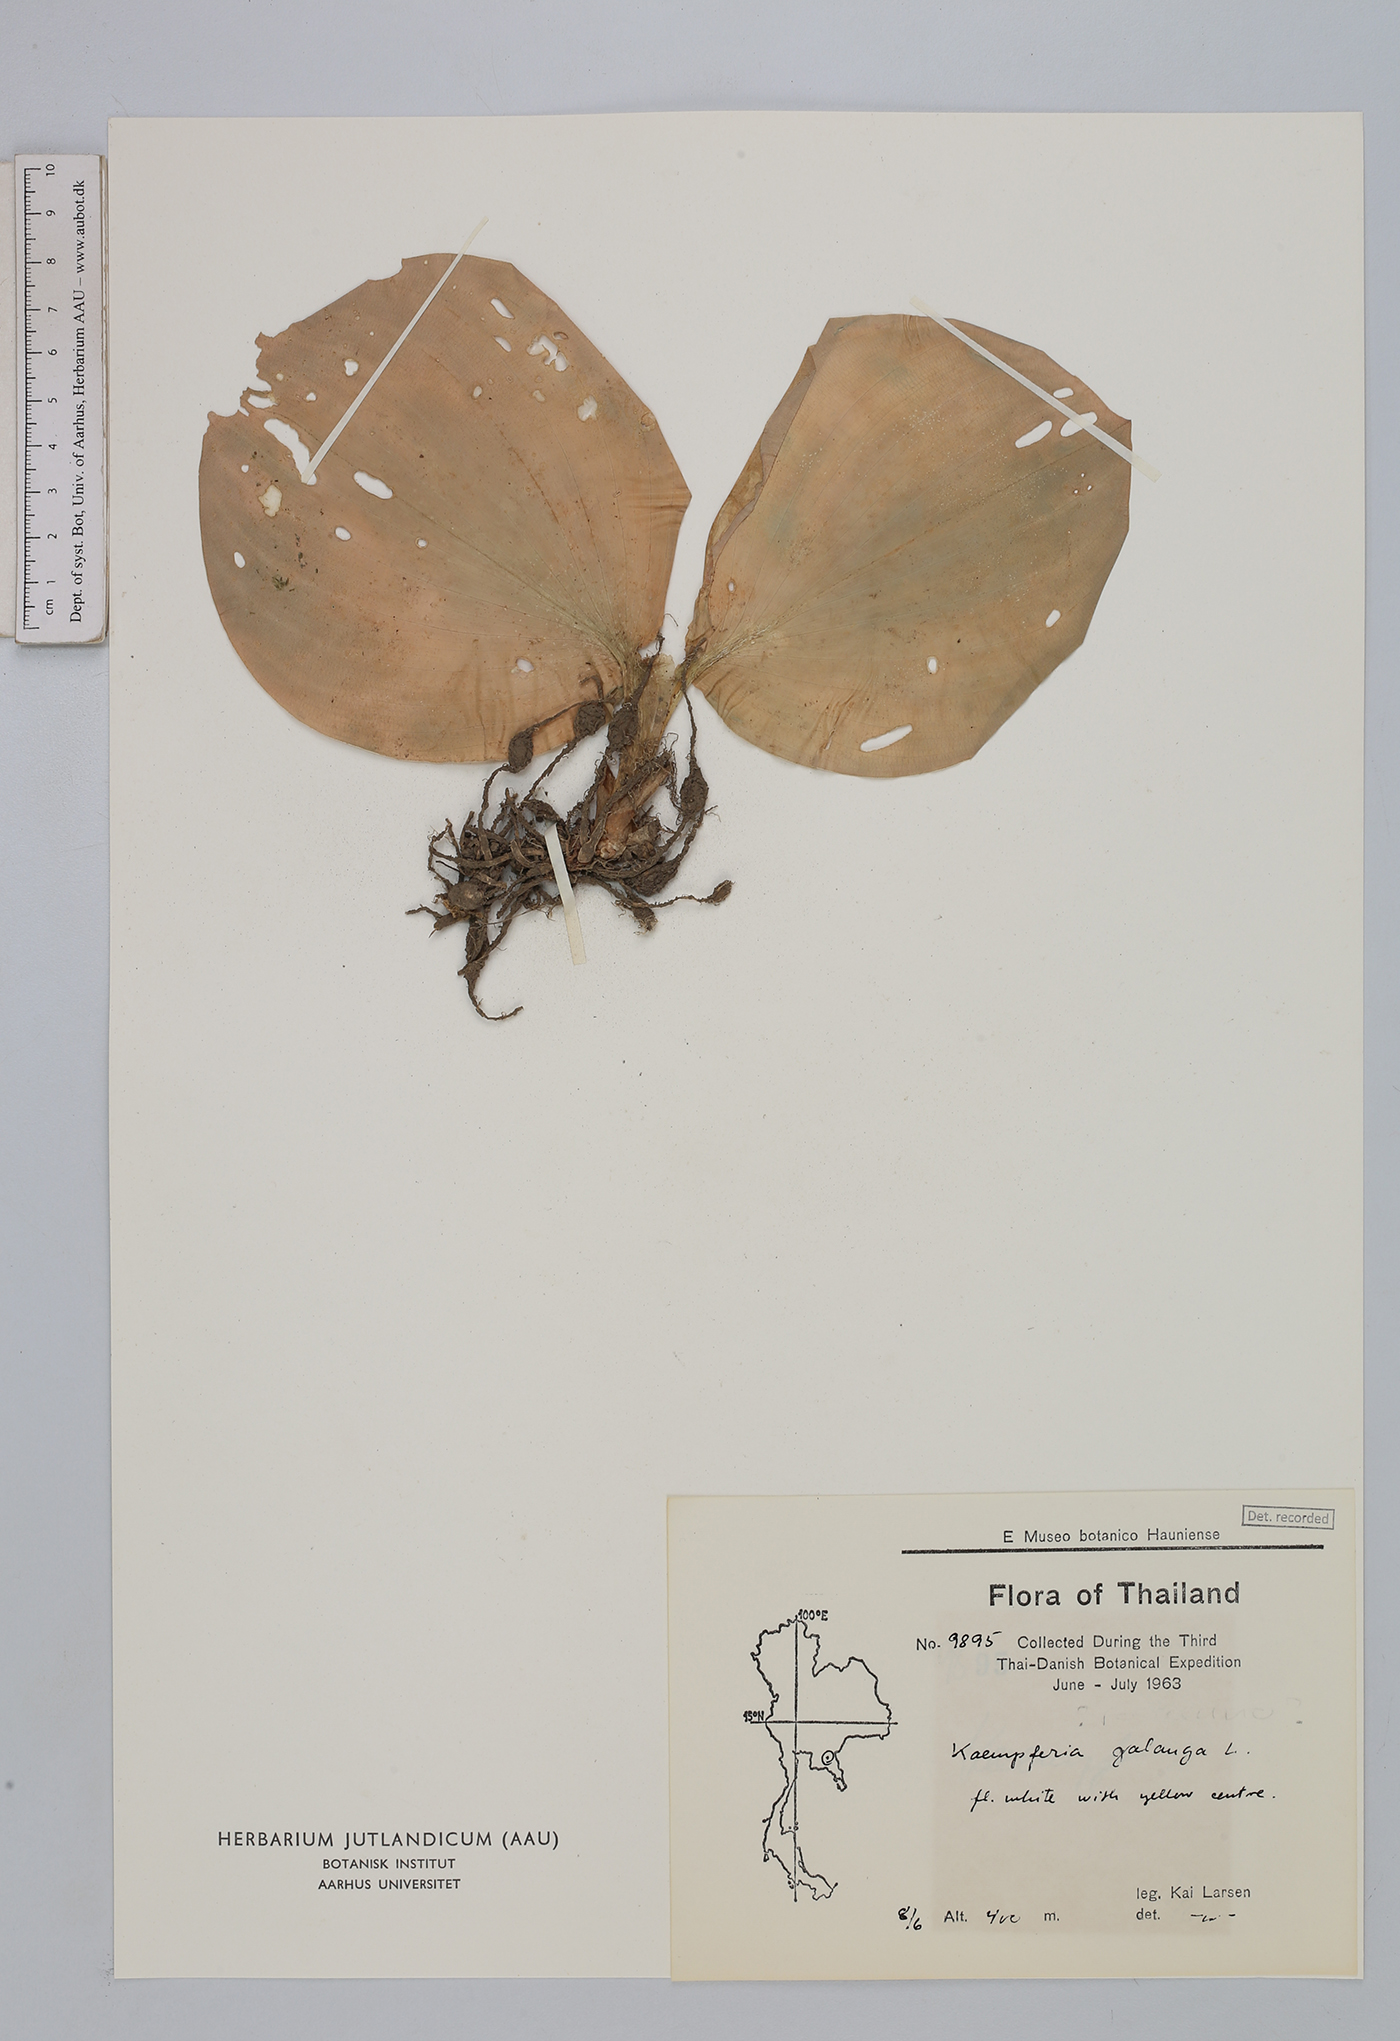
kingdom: Plantae
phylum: Tracheophyta
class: Liliopsida
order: Zingiberales
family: Zingiberaceae
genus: Kaempferia
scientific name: Kaempferia galanga
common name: Aromatic ginger
